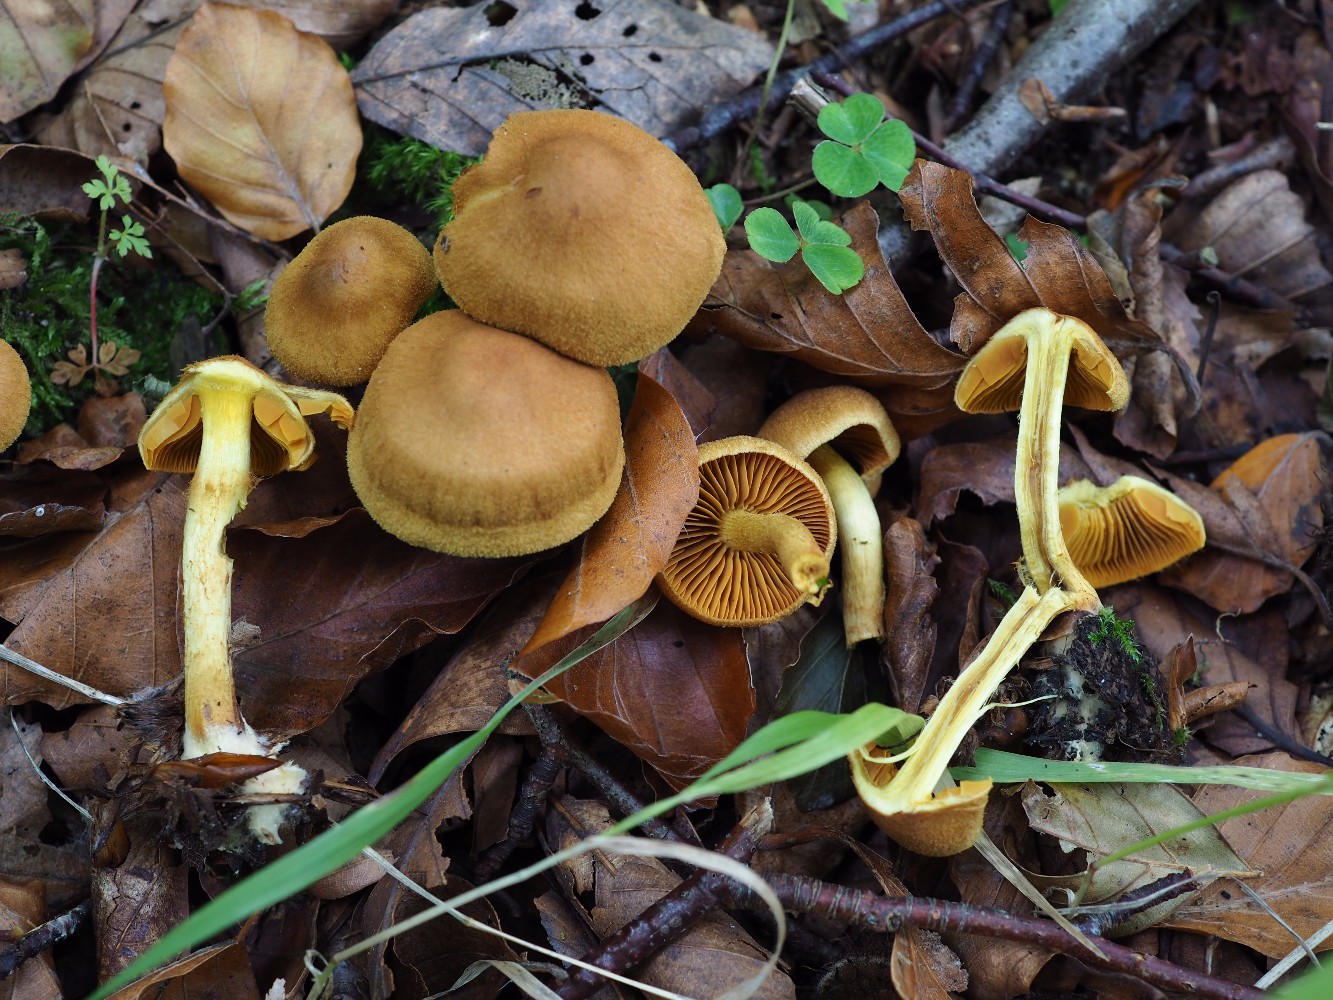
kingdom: Fungi
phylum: Basidiomycota
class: Agaricomycetes
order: Agaricales
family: Cortinariaceae
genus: Cortinarius
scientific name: Cortinarius cinnamomeus
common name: kanel-slørhat
